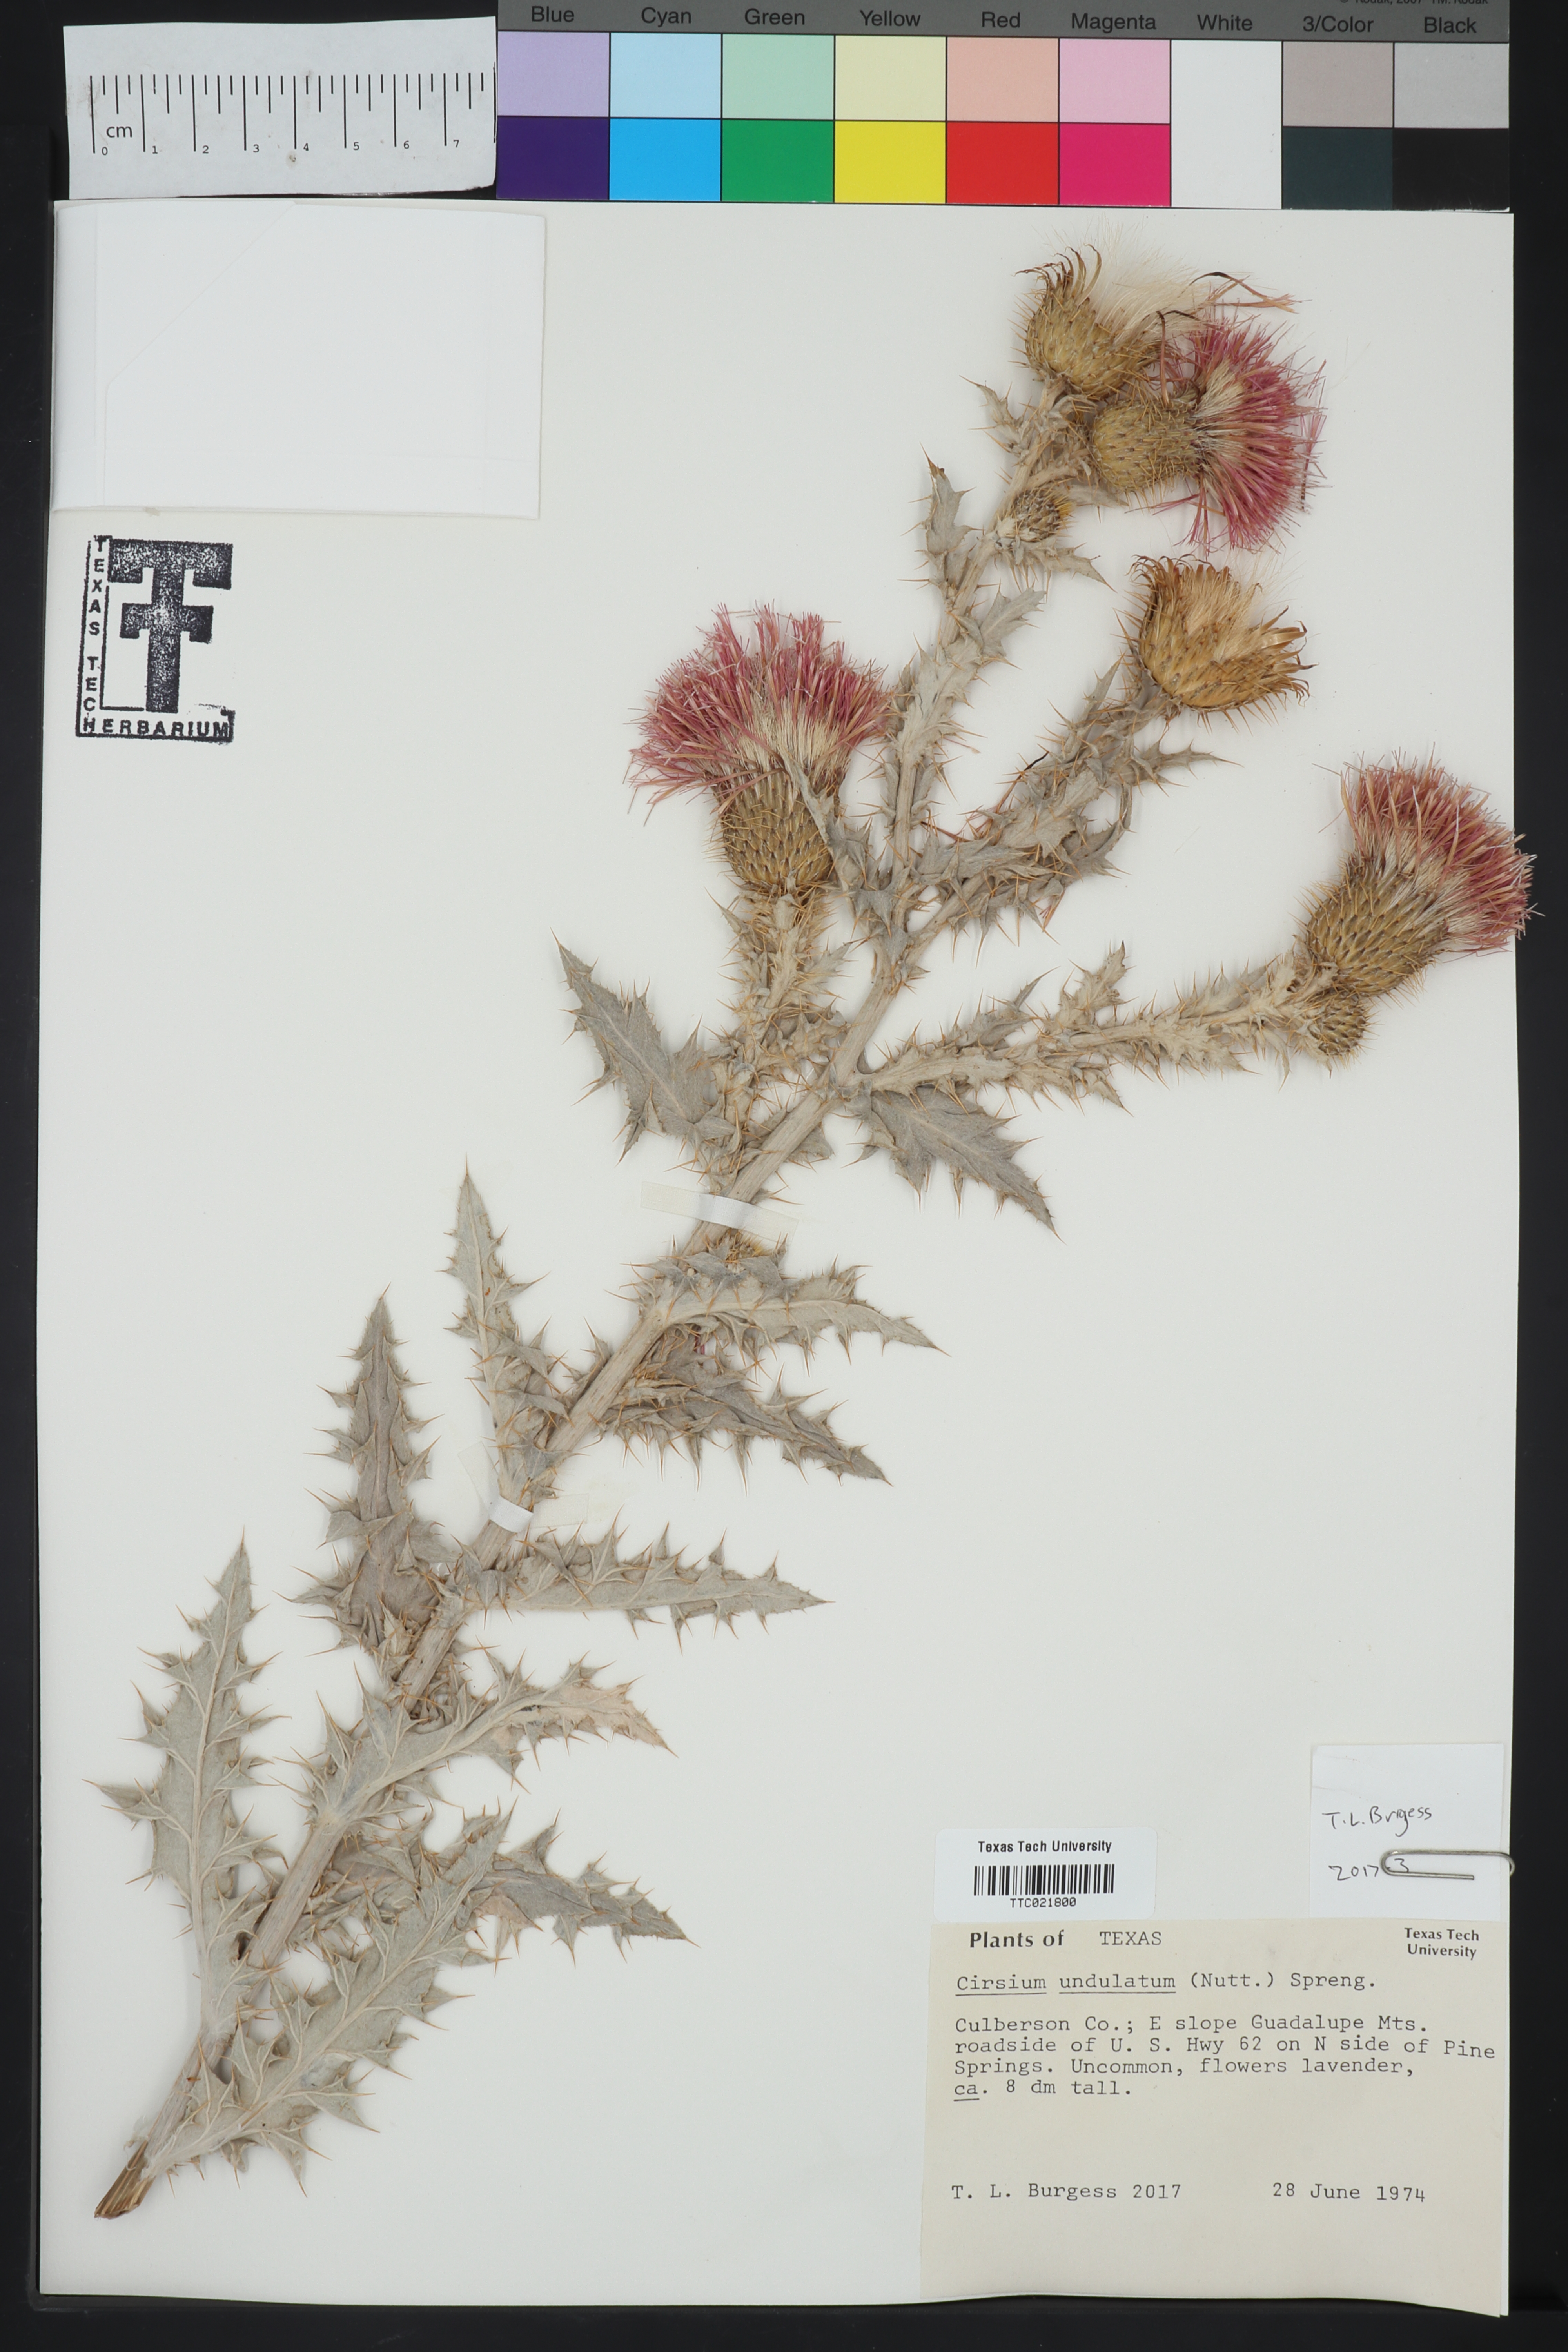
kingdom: Plantae
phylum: Tracheophyta
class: Magnoliopsida
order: Asterales
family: Asteraceae
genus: Cirsium
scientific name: Cirsium undulatum
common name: Pasture thistle
